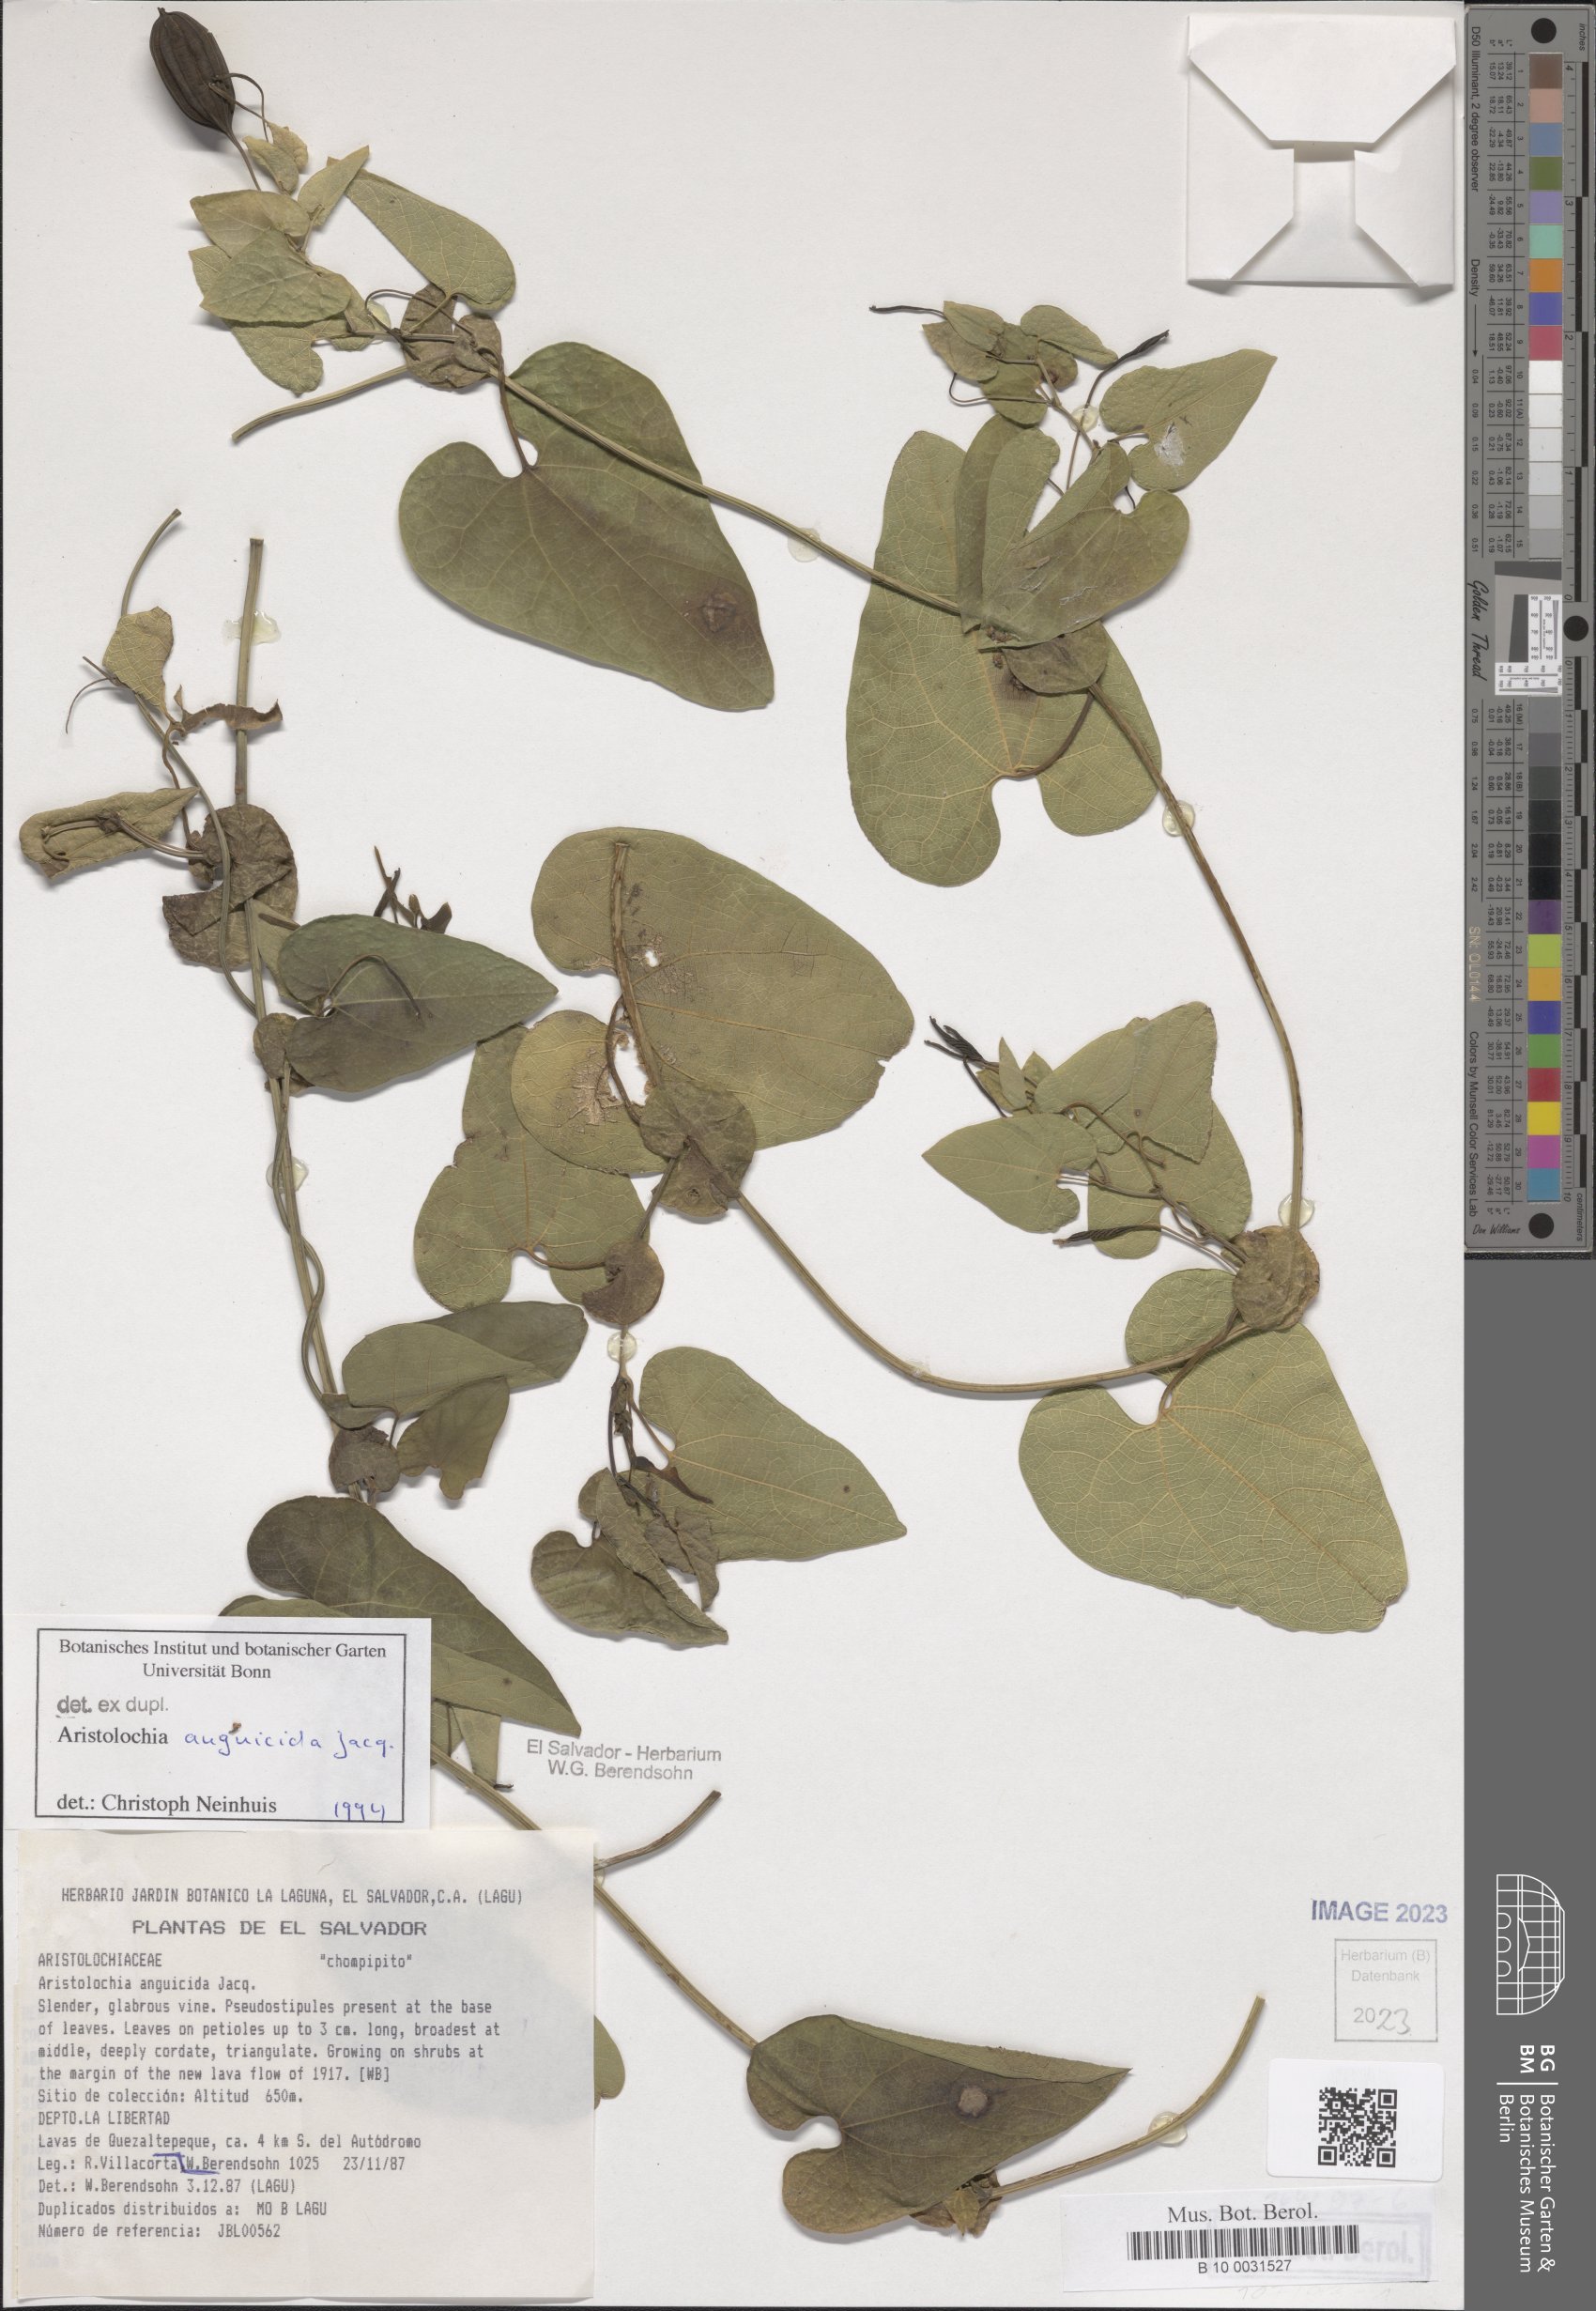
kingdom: Plantae
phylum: Tracheophyta
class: Magnoliopsida
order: Piperales
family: Aristolochiaceae
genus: Aristolochia
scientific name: Aristolochia anguicida
